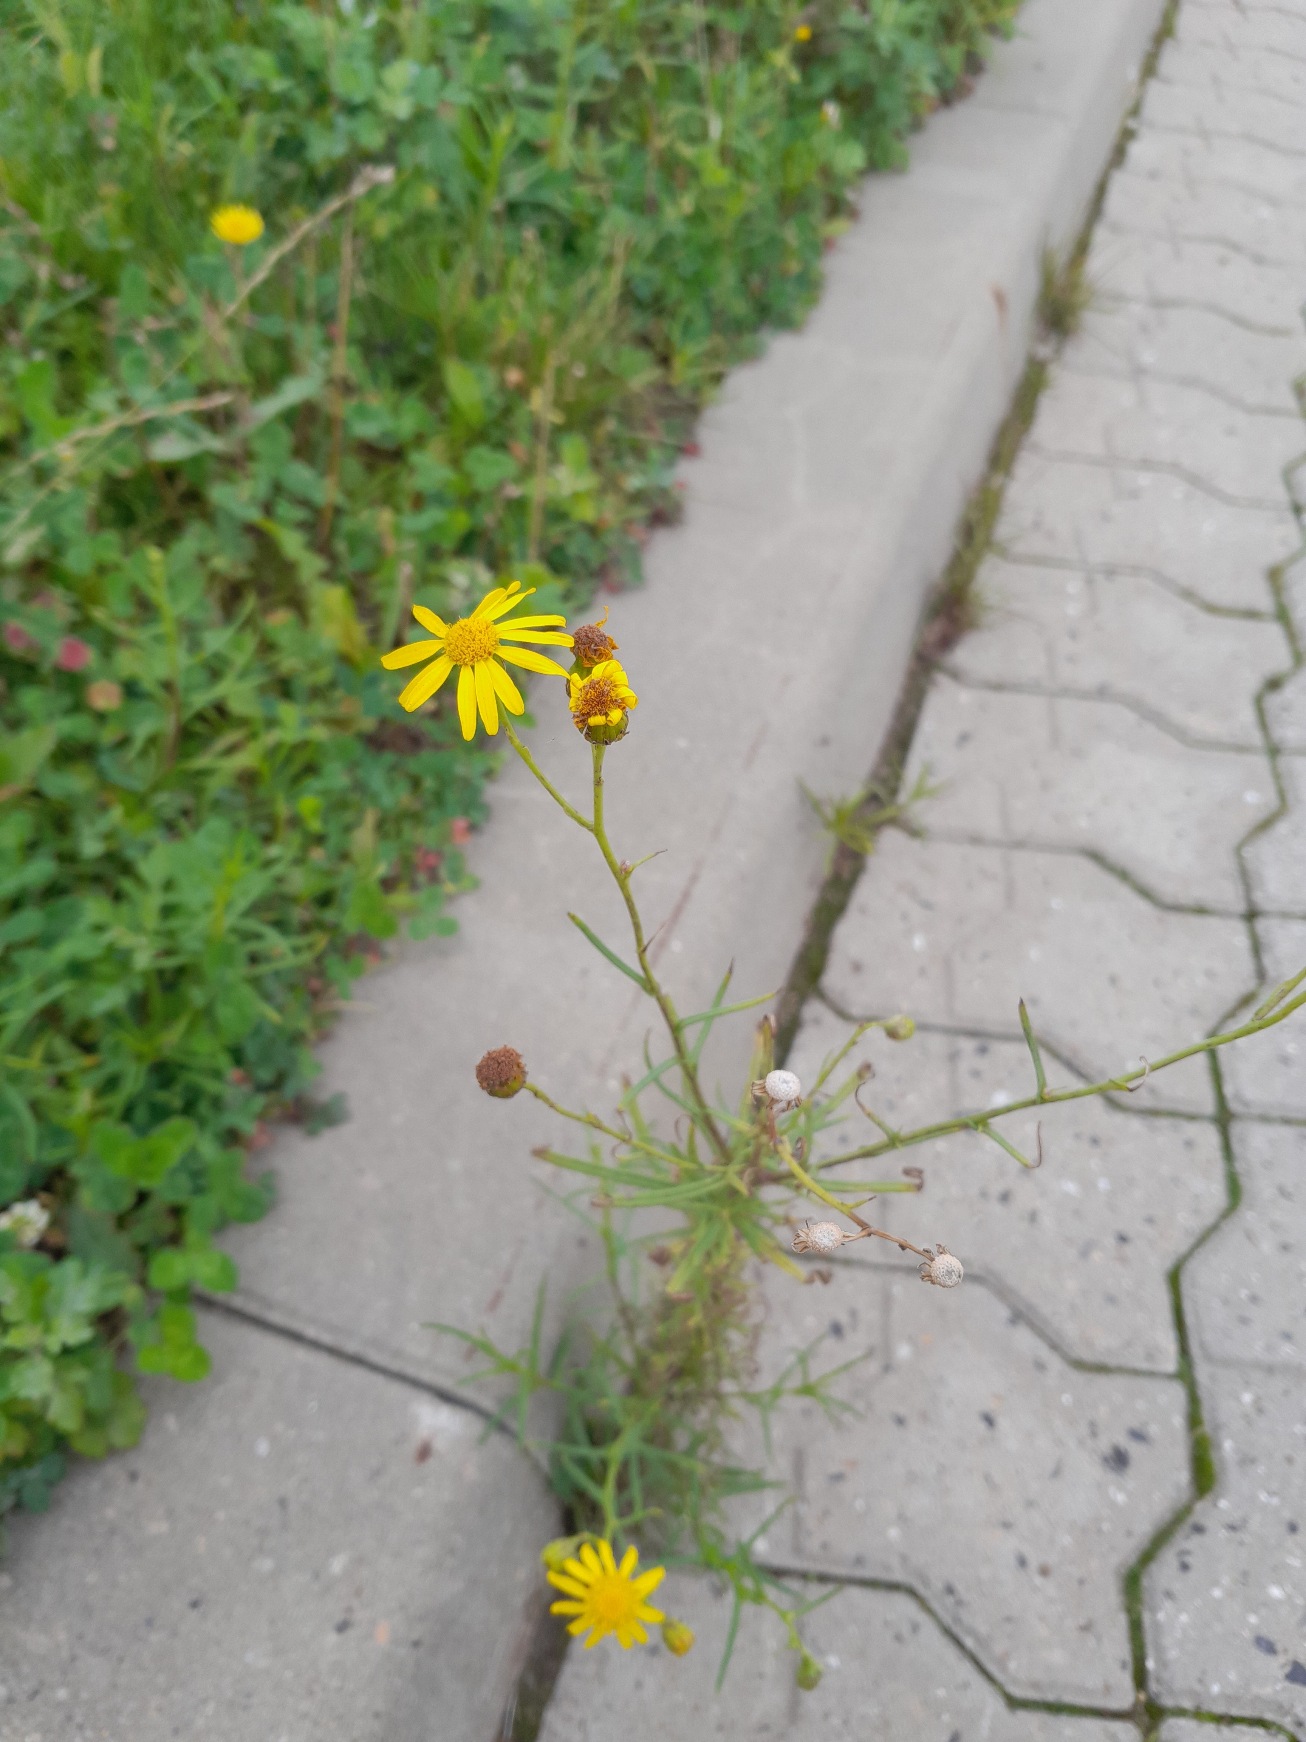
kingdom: Plantae
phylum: Tracheophyta
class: Magnoliopsida
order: Asterales
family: Asteraceae
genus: Senecio
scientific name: Senecio inaequidens
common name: Smalbladet brandbæger
